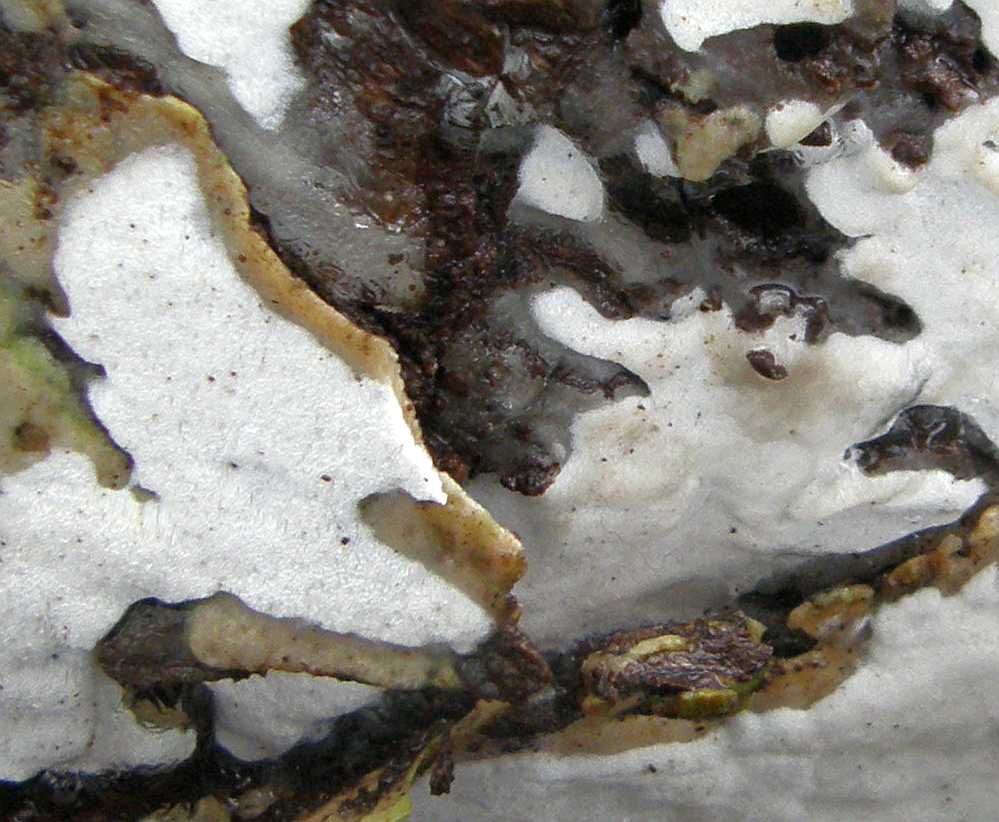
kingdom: Fungi
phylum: Basidiomycota
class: Agaricomycetes
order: Hymenochaetales
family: Oxyporaceae
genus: Oxyporus
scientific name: Oxyporus obducens
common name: skorpe-trylleporesvamp
